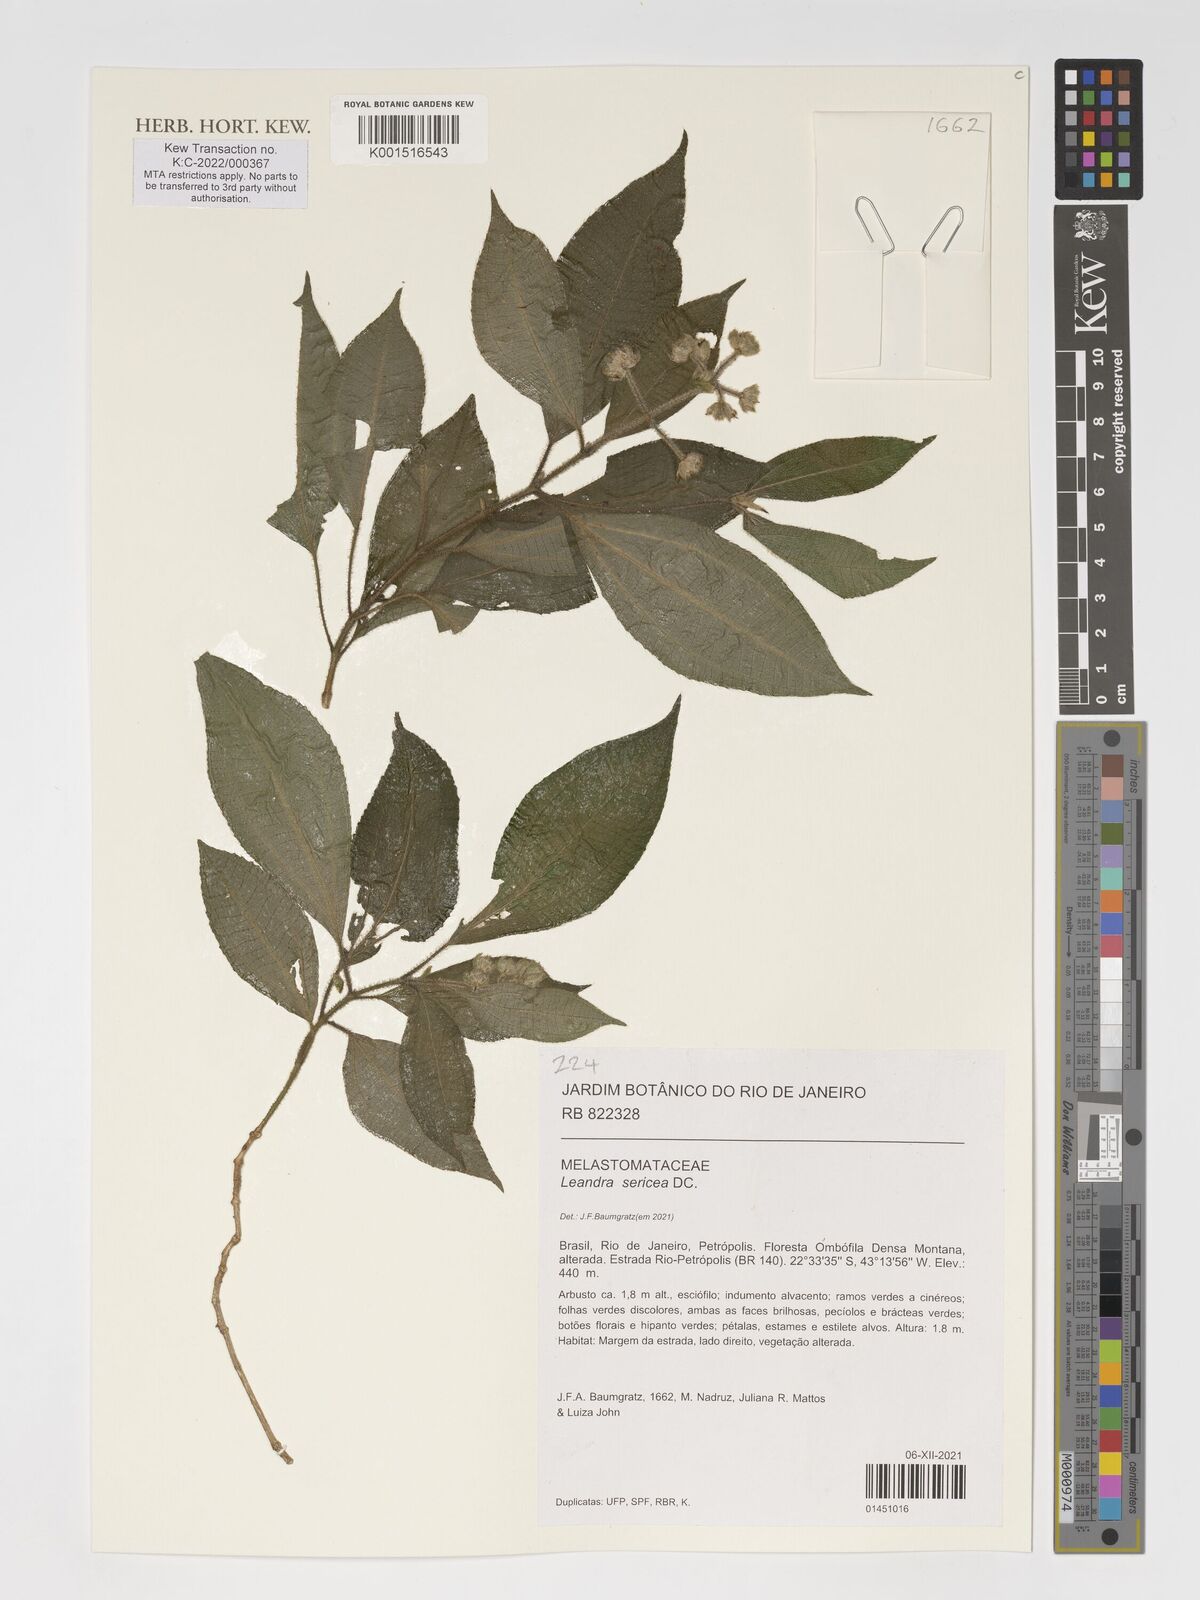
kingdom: Plantae
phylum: Tracheophyta
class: Magnoliopsida
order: Myrtales
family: Melastomataceae
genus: Miconia
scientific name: Miconia raddii
